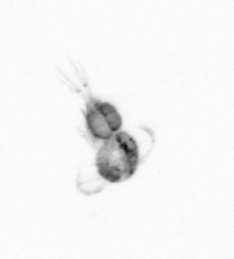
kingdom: Animalia
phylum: Arthropoda
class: Copepoda
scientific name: Copepoda
